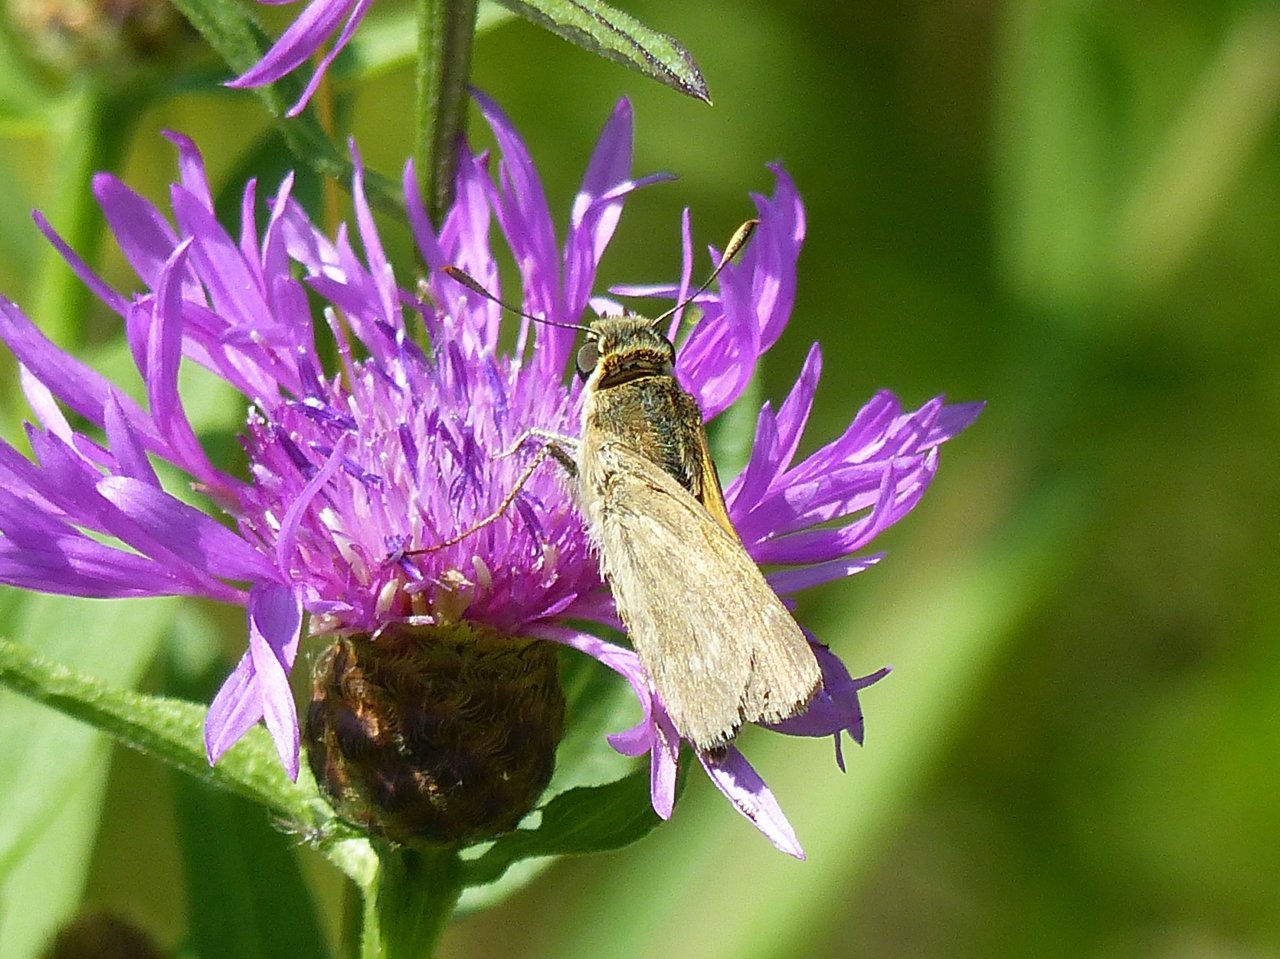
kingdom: Animalia
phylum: Arthropoda
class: Insecta
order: Lepidoptera
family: Hesperiidae
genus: Polites
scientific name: Polites
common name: Crossline Skipper
